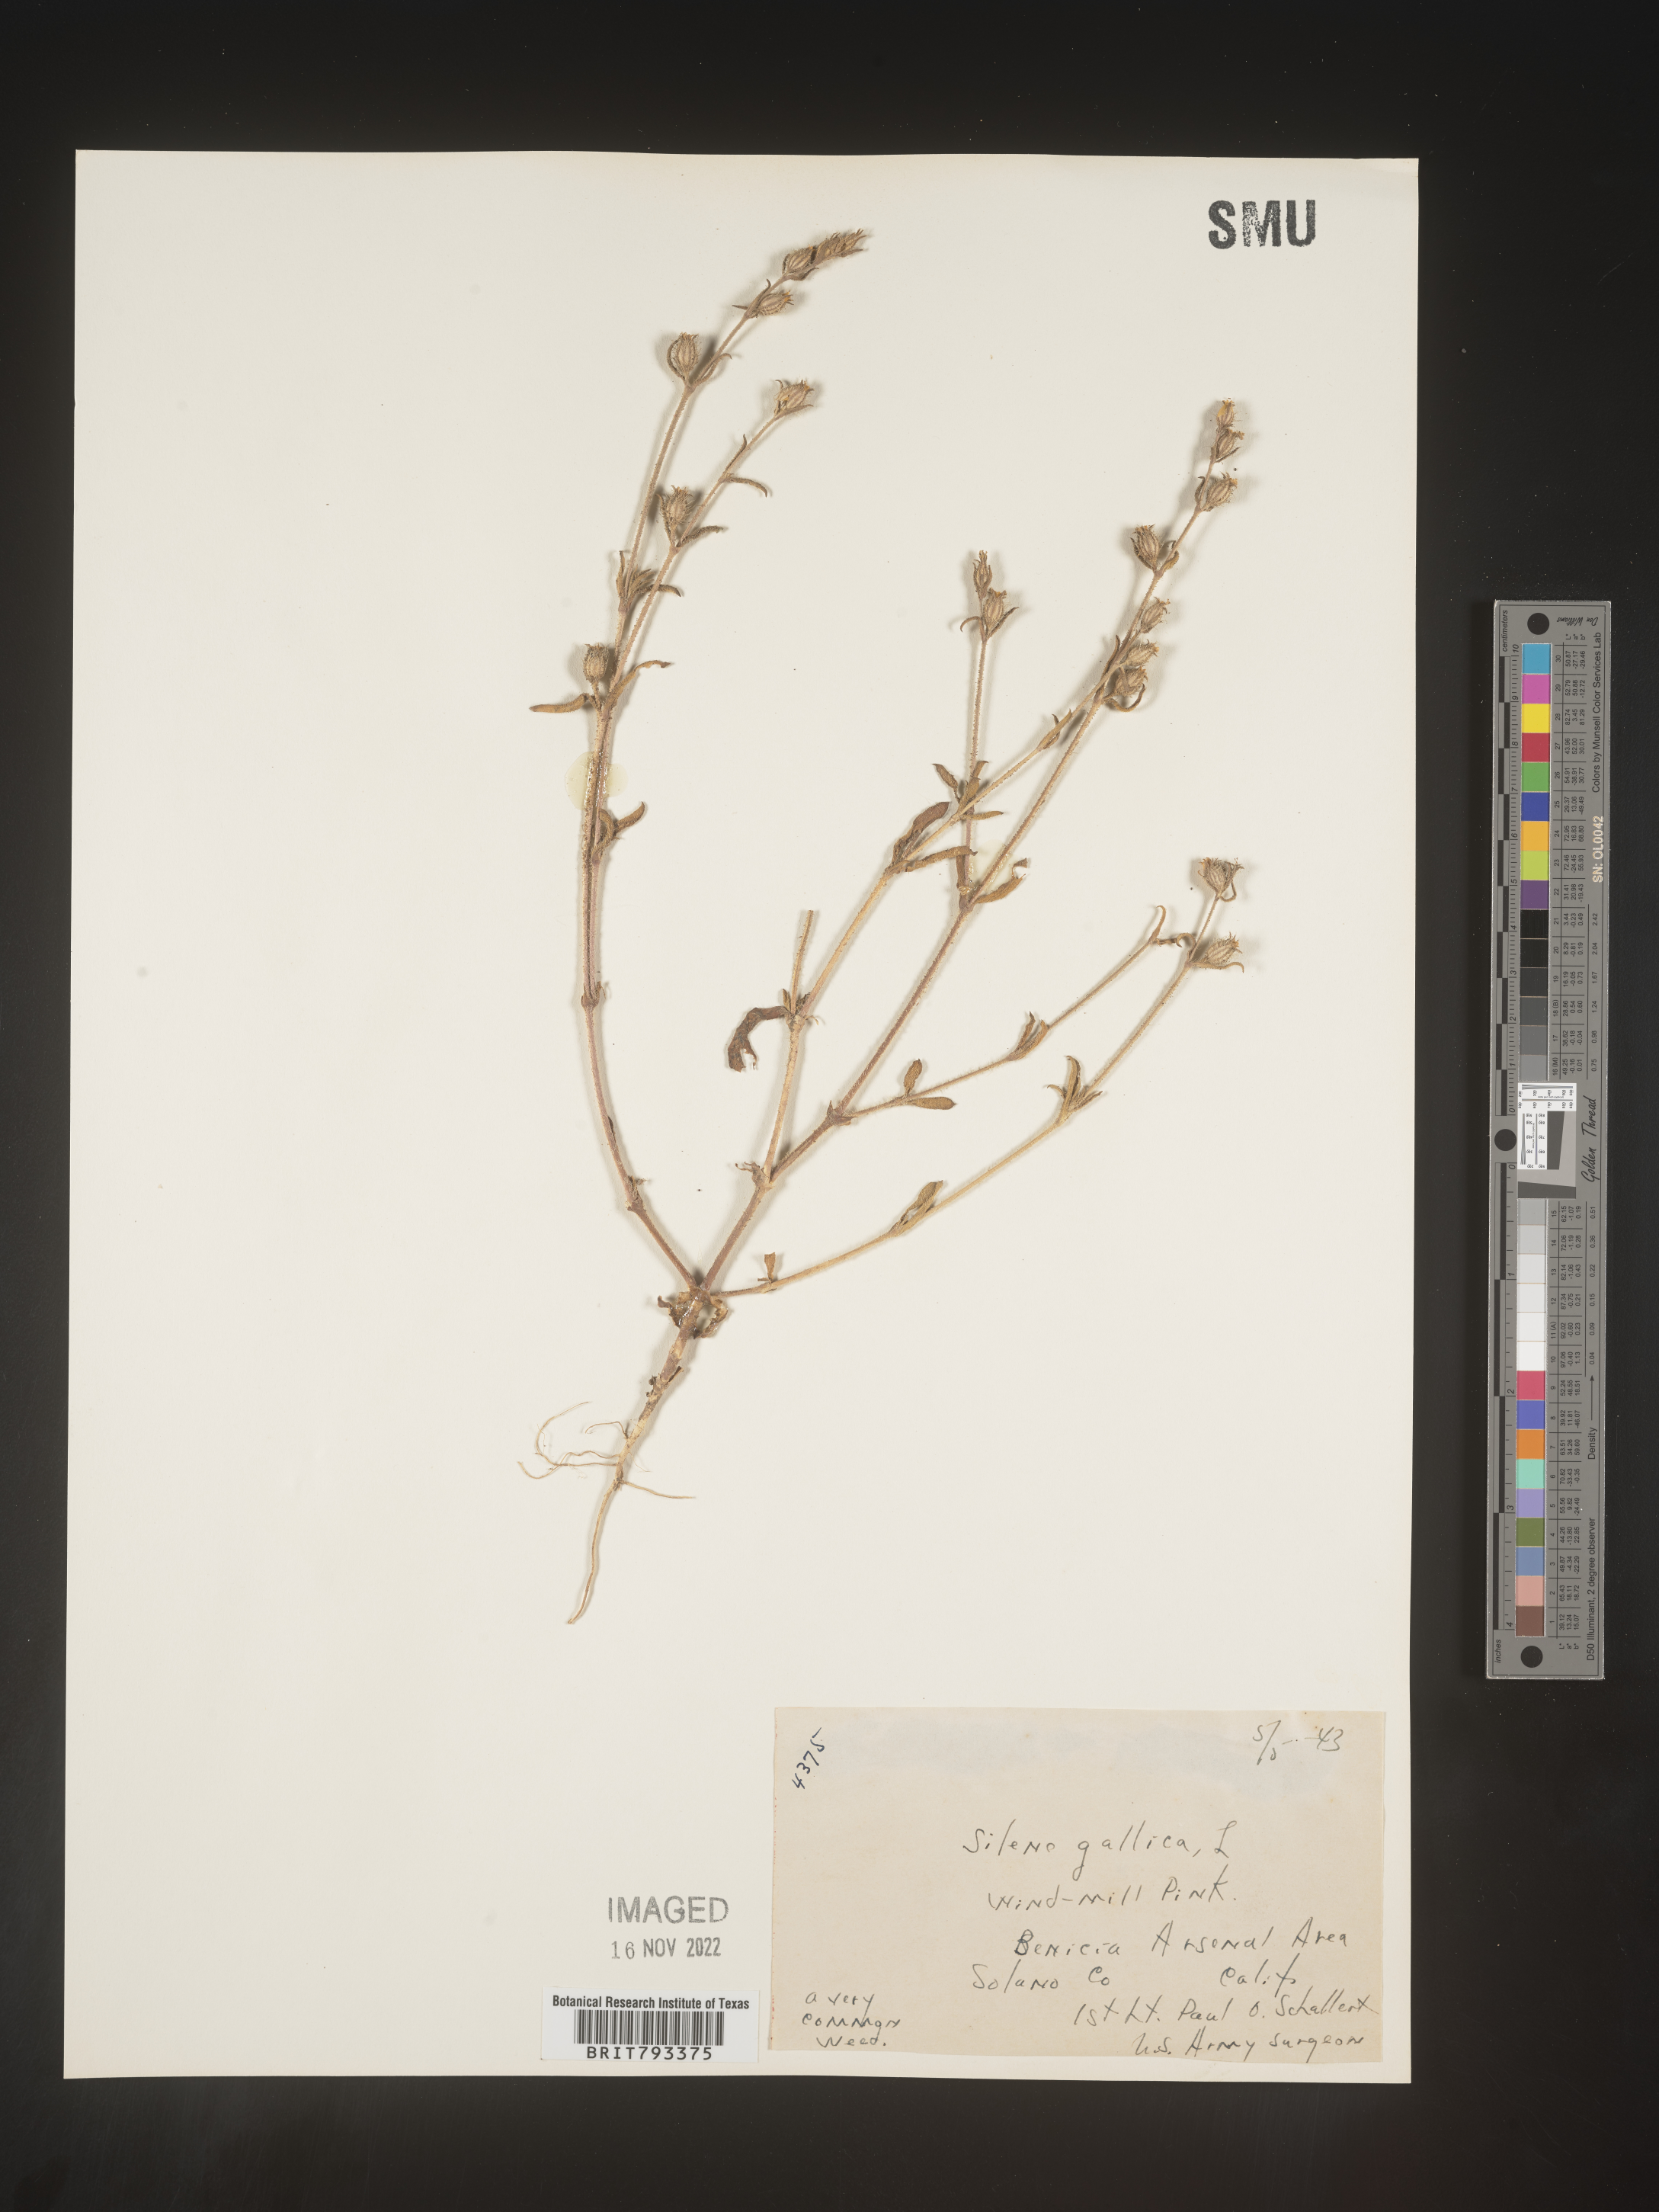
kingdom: Plantae
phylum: Tracheophyta
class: Magnoliopsida
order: Caryophyllales
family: Caryophyllaceae
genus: Silene
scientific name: Silene gallica
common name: Small-flowered catchfly
